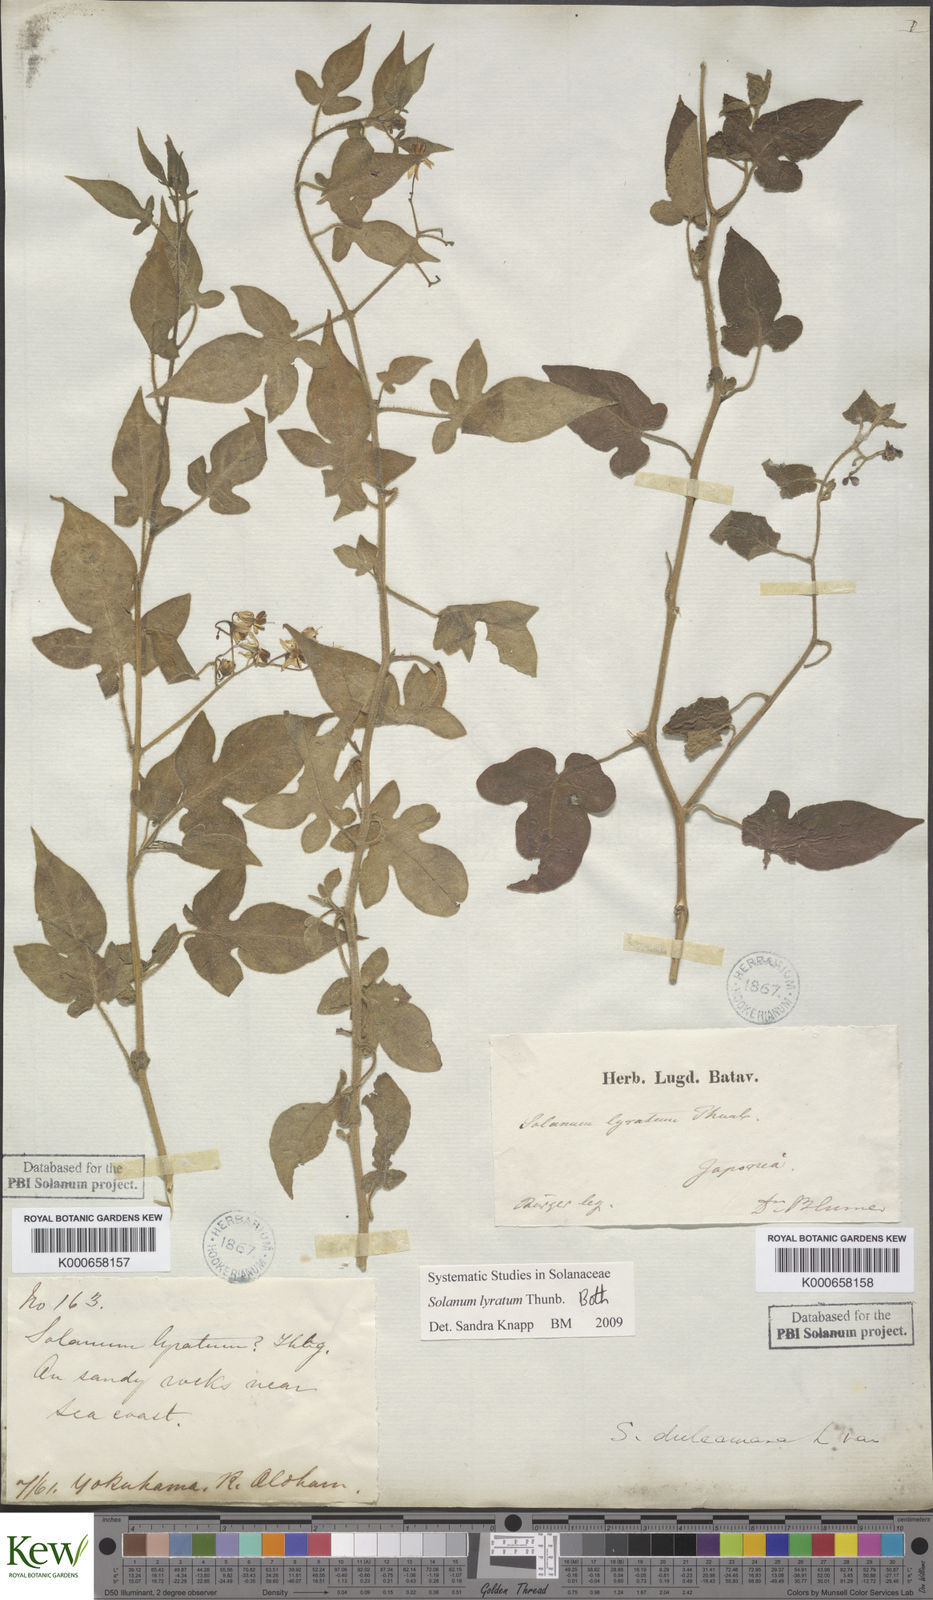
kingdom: Plantae
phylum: Tracheophyta
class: Magnoliopsida
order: Solanales
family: Solanaceae
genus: Solanum
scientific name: Solanum lyratum
